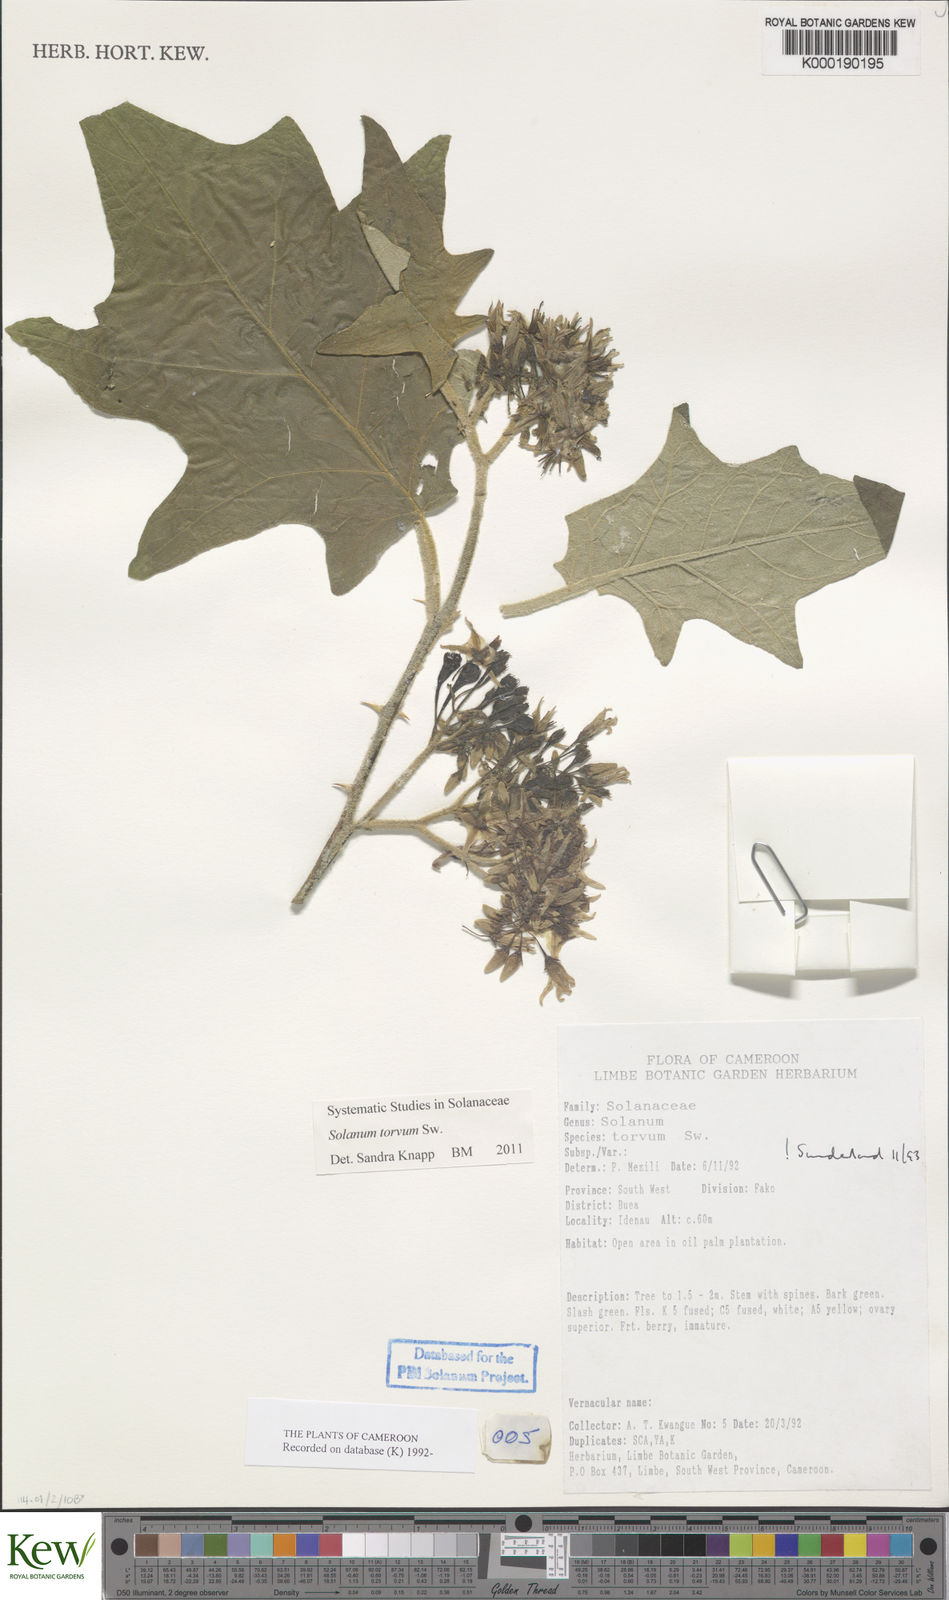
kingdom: Plantae
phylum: Tracheophyta
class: Magnoliopsida
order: Solanales
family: Solanaceae
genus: Solanum
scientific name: Solanum torvum
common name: Turkey berry
